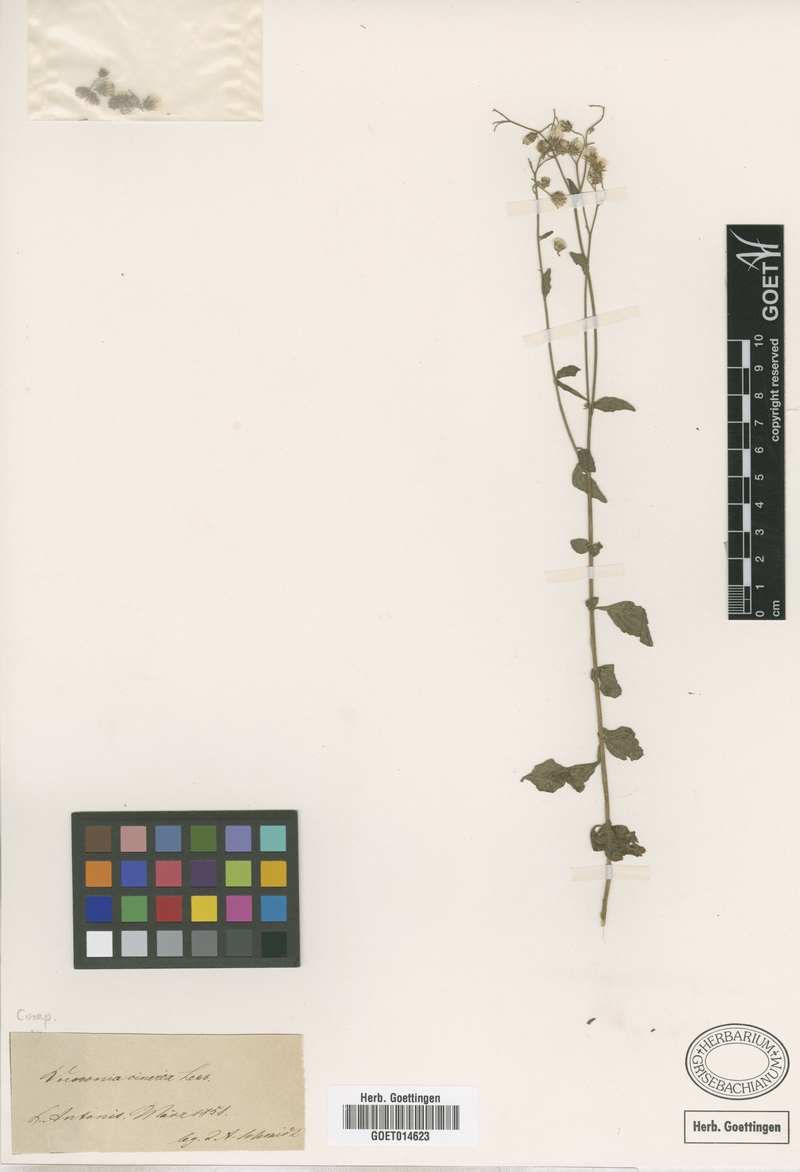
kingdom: Plantae
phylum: Tracheophyta
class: Magnoliopsida
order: Asterales
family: Asteraceae
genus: Cyanthillium
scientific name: Cyanthillium cinereum
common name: Little ironweed
